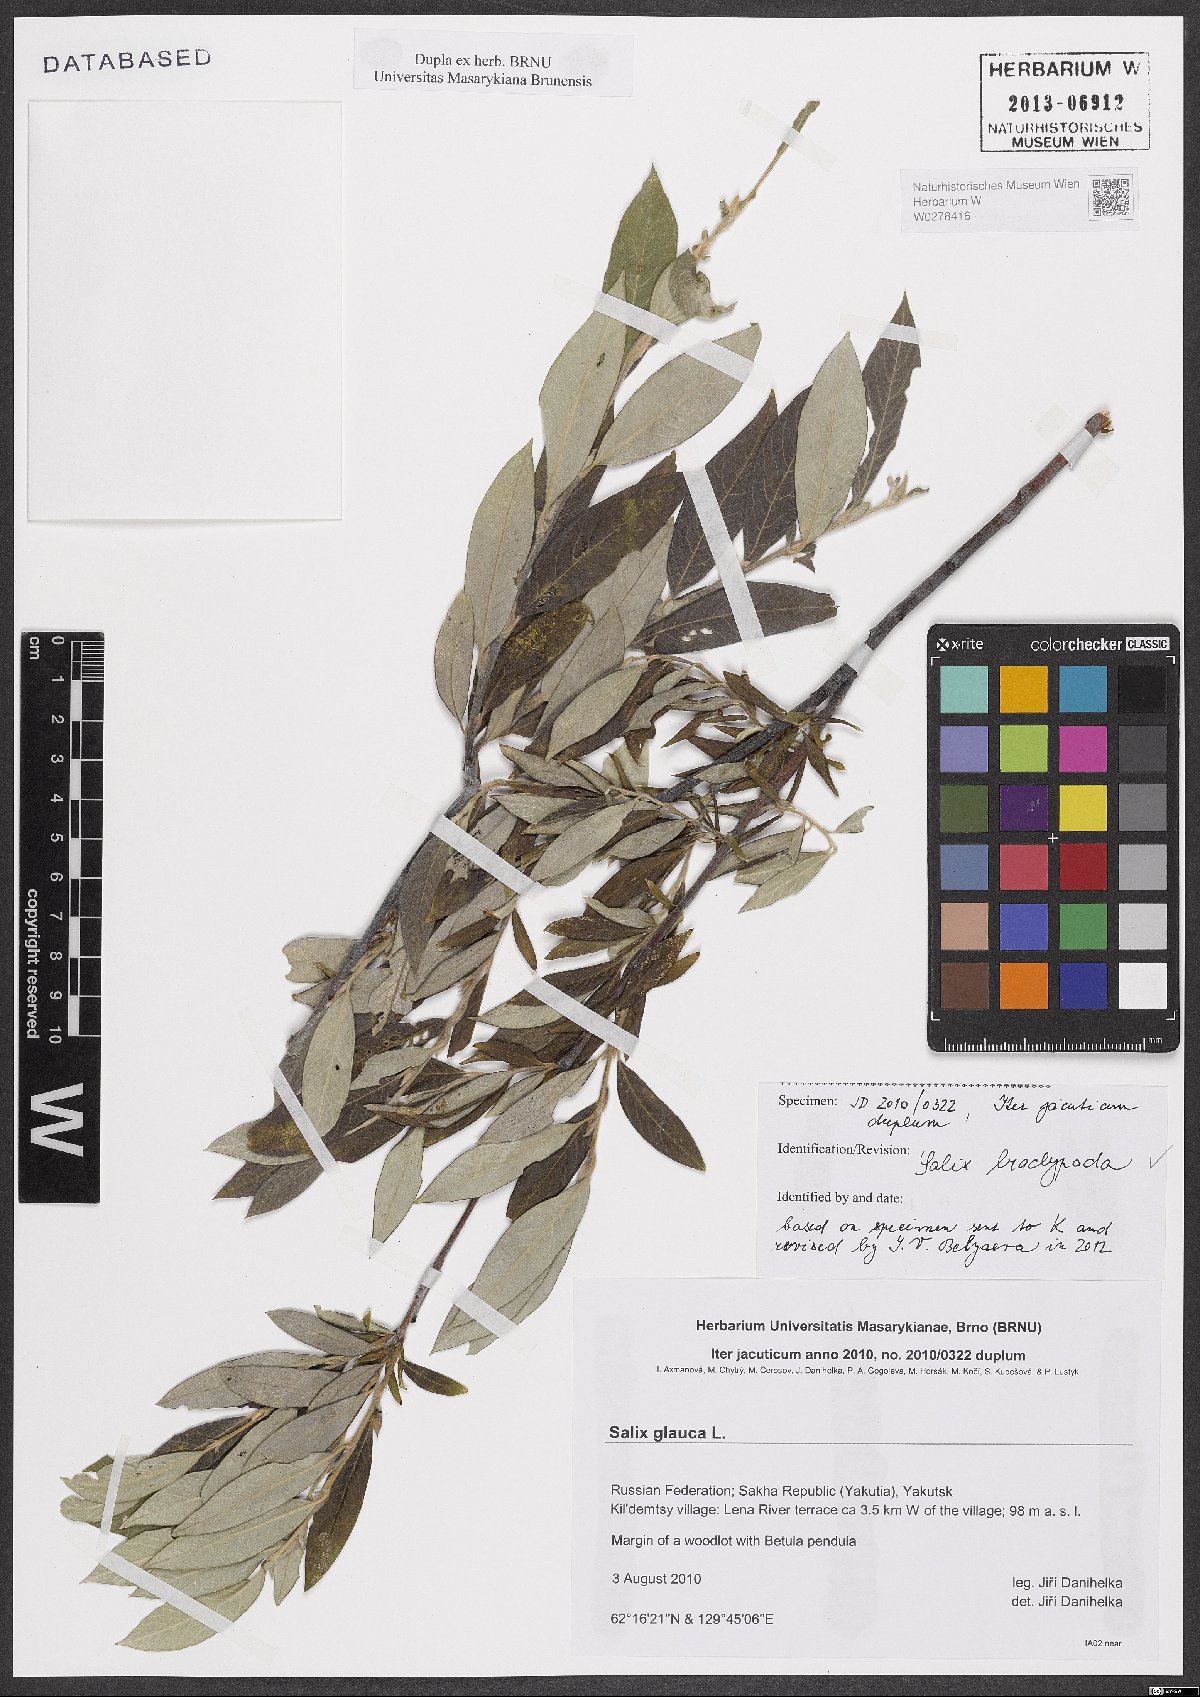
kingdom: Plantae
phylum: Tracheophyta
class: Magnoliopsida
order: Malpighiales
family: Salicaceae
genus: Salix
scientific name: Salix brachypoda
